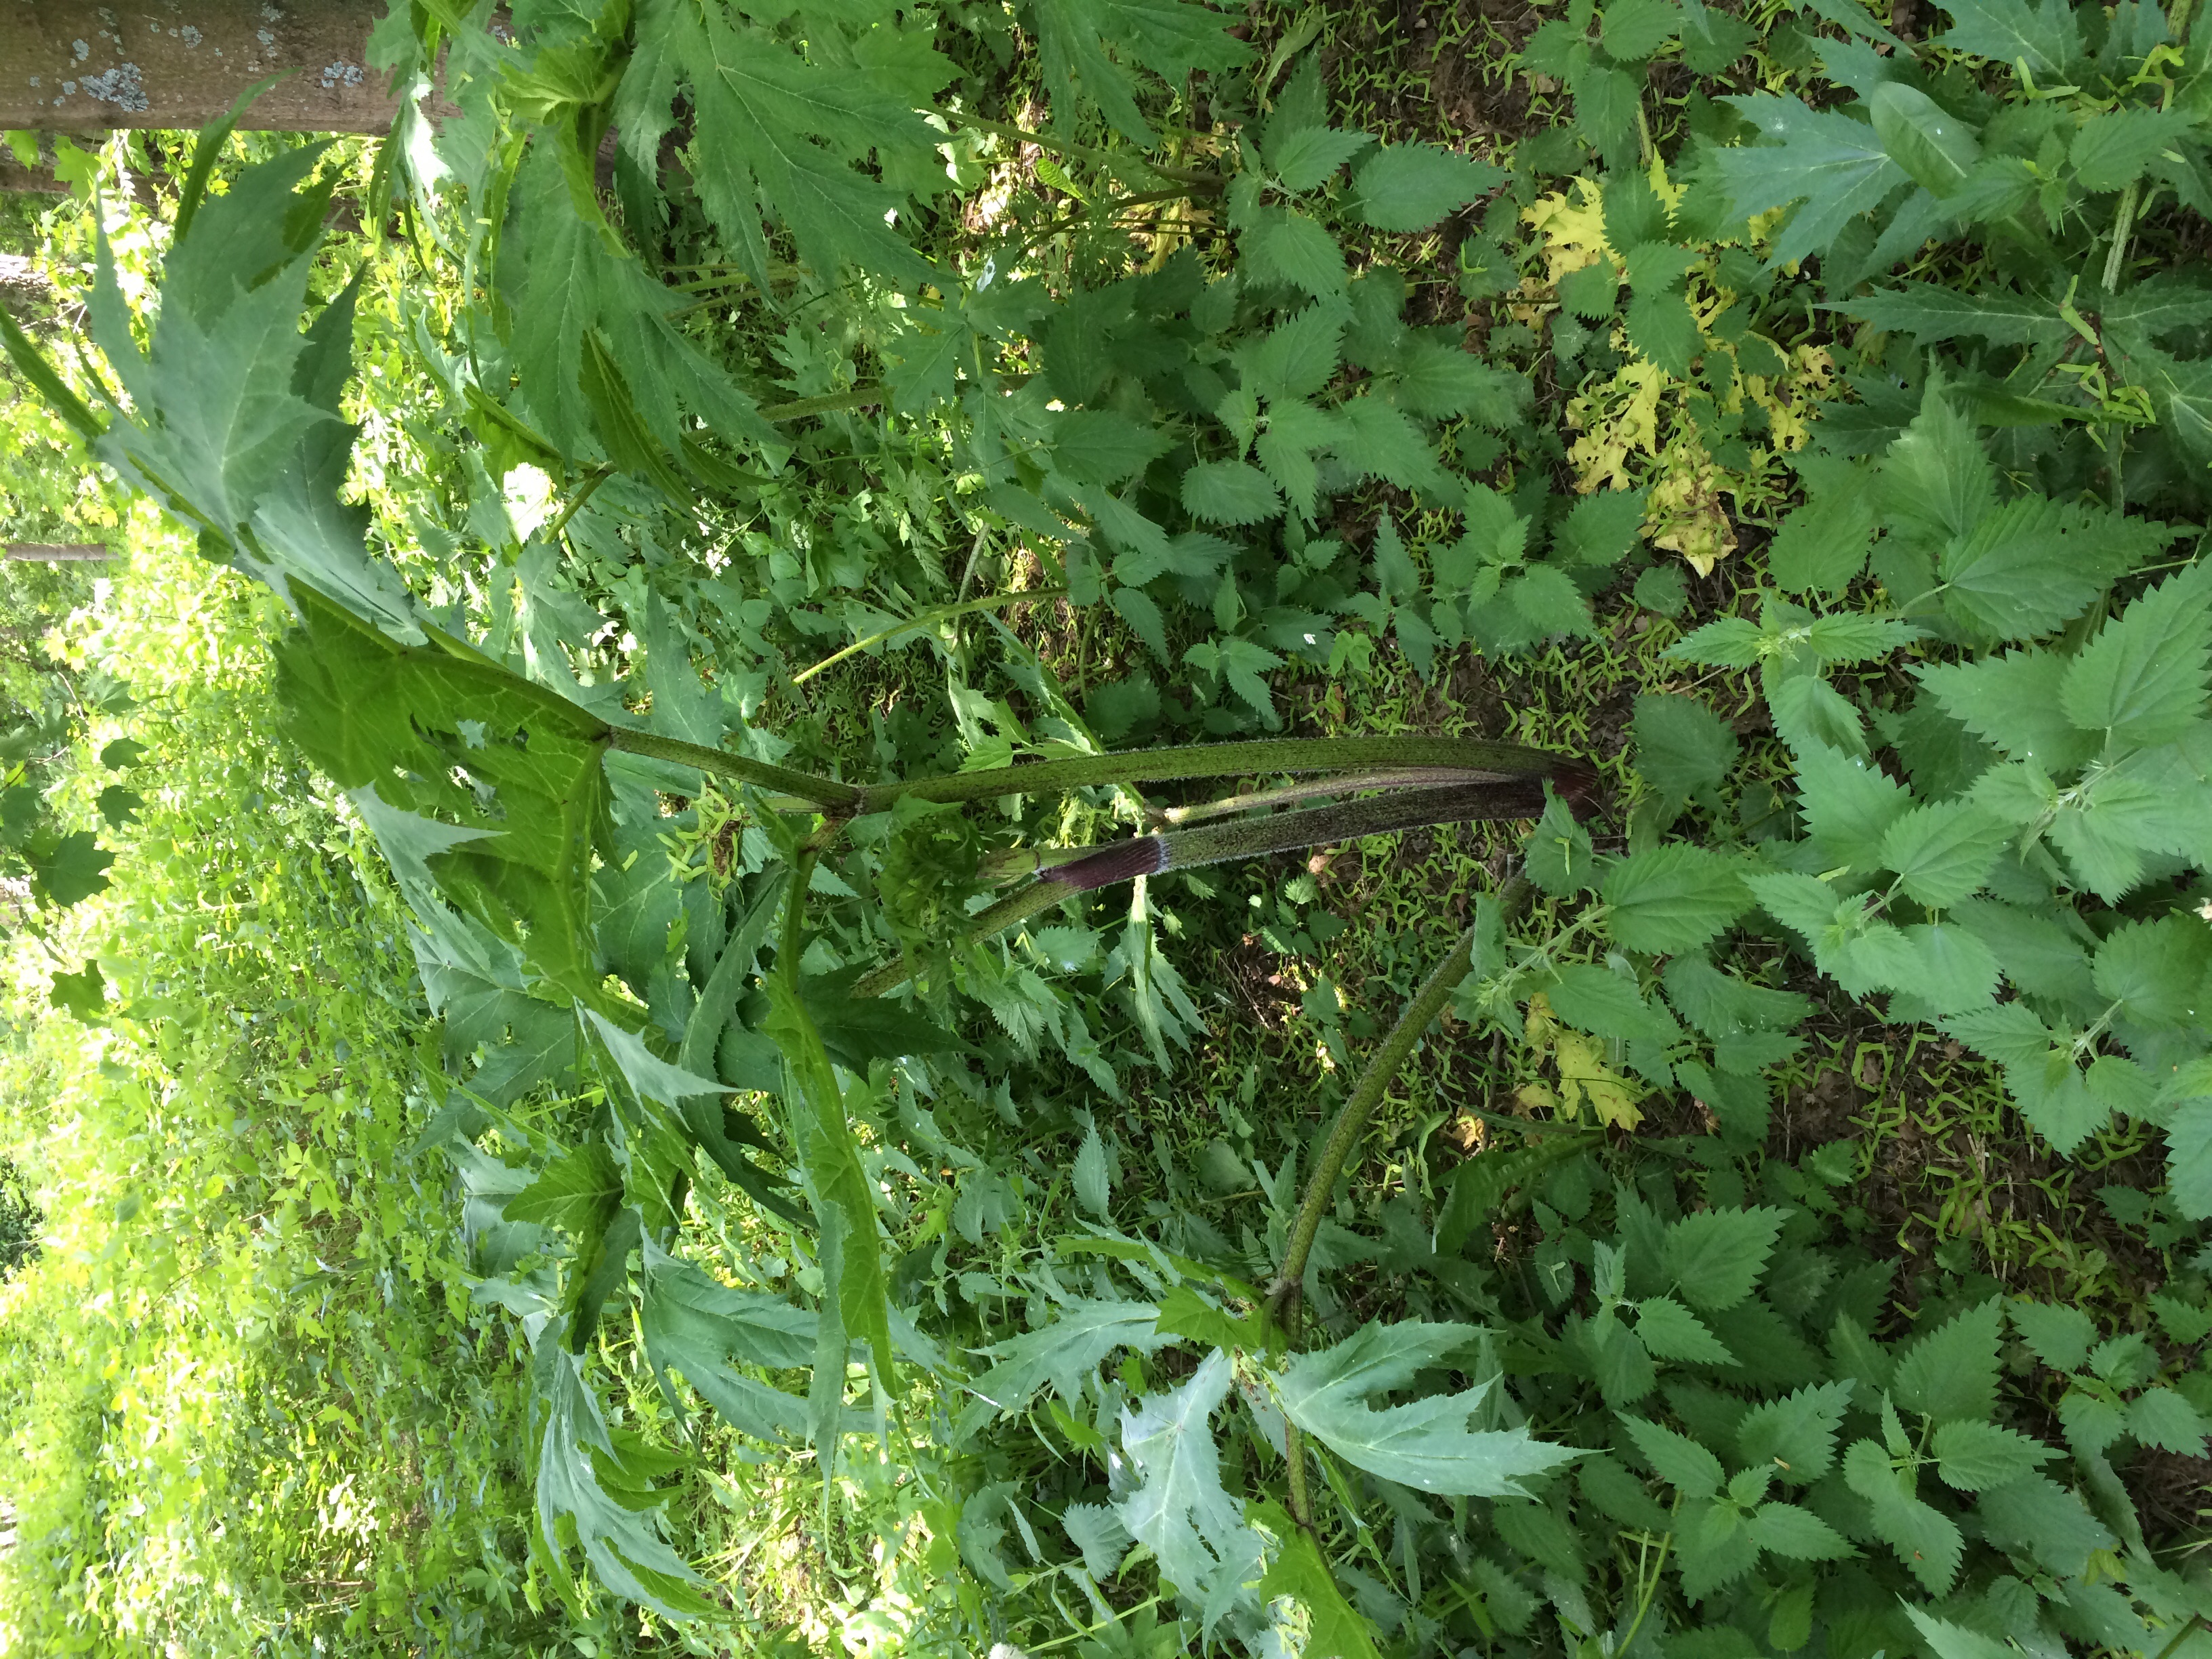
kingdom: Plantae
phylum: Tracheophyta
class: Magnoliopsida
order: Apiales
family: Apiaceae
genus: Heracleum
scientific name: Heracleum
